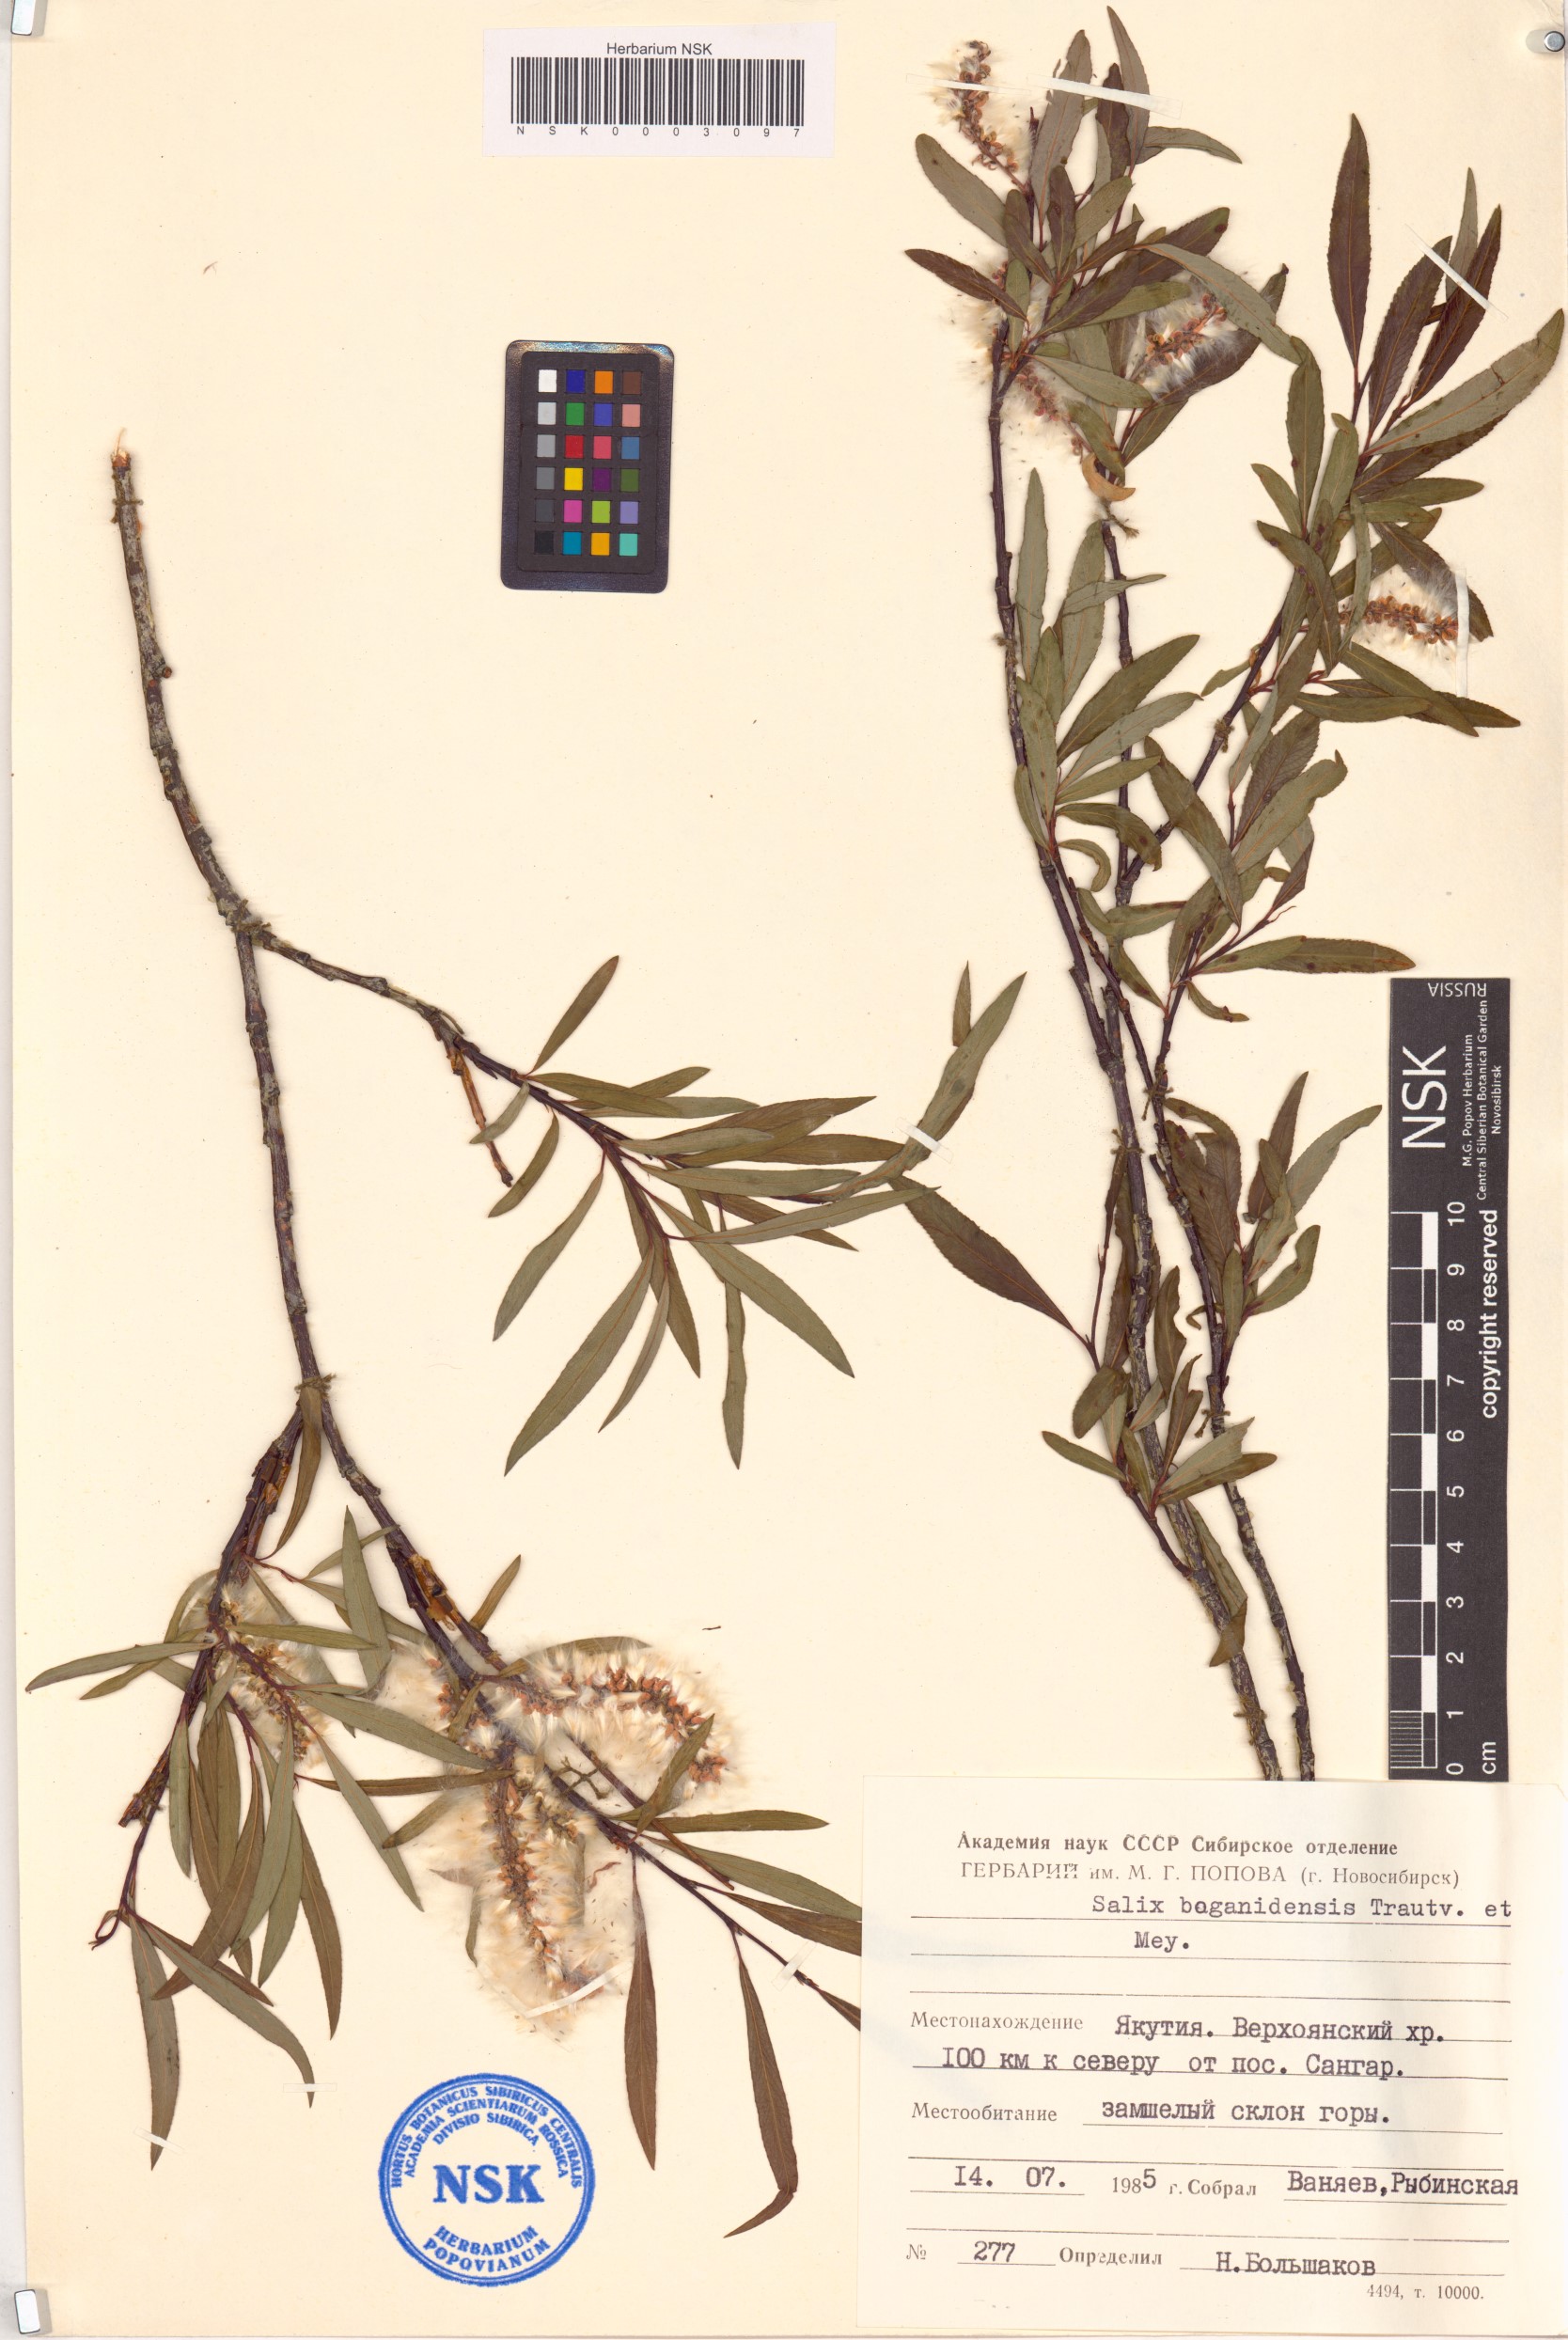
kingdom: Plantae
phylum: Tracheophyta
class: Magnoliopsida
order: Malpighiales
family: Salicaceae
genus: Salix
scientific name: Salix boganidensis
